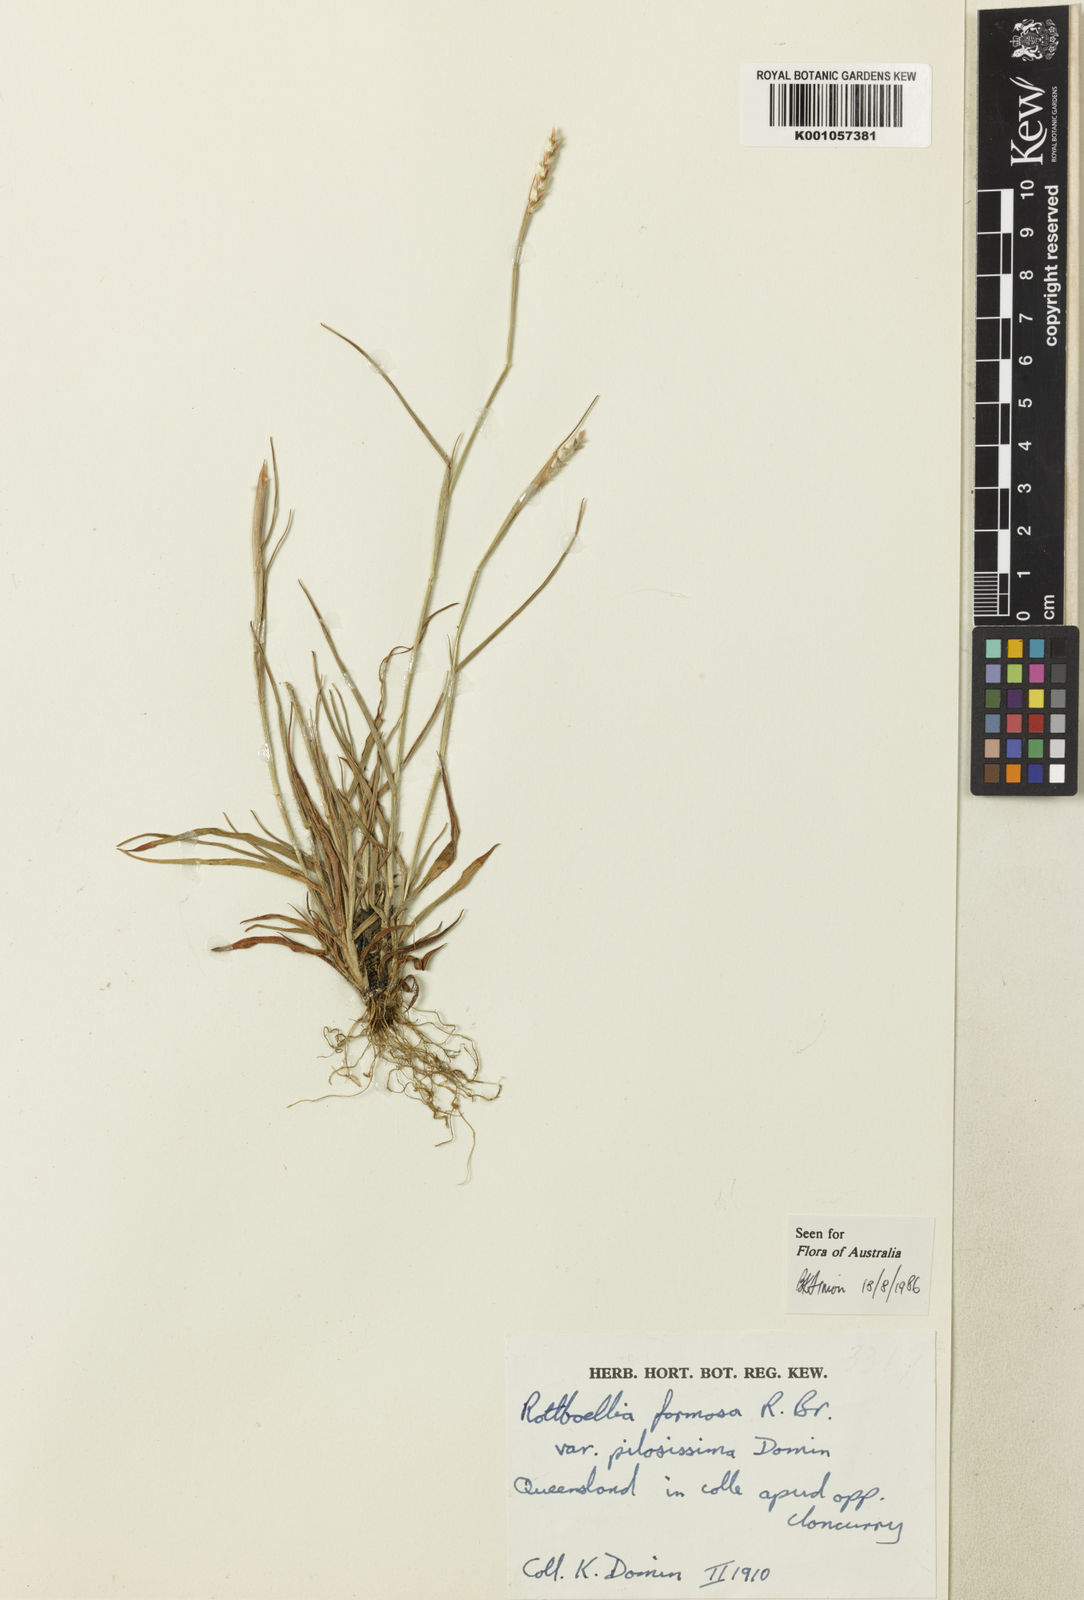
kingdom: Plantae
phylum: Tracheophyta
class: Liliopsida
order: Poales
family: Poaceae
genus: Heteropholis
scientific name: Heteropholis
